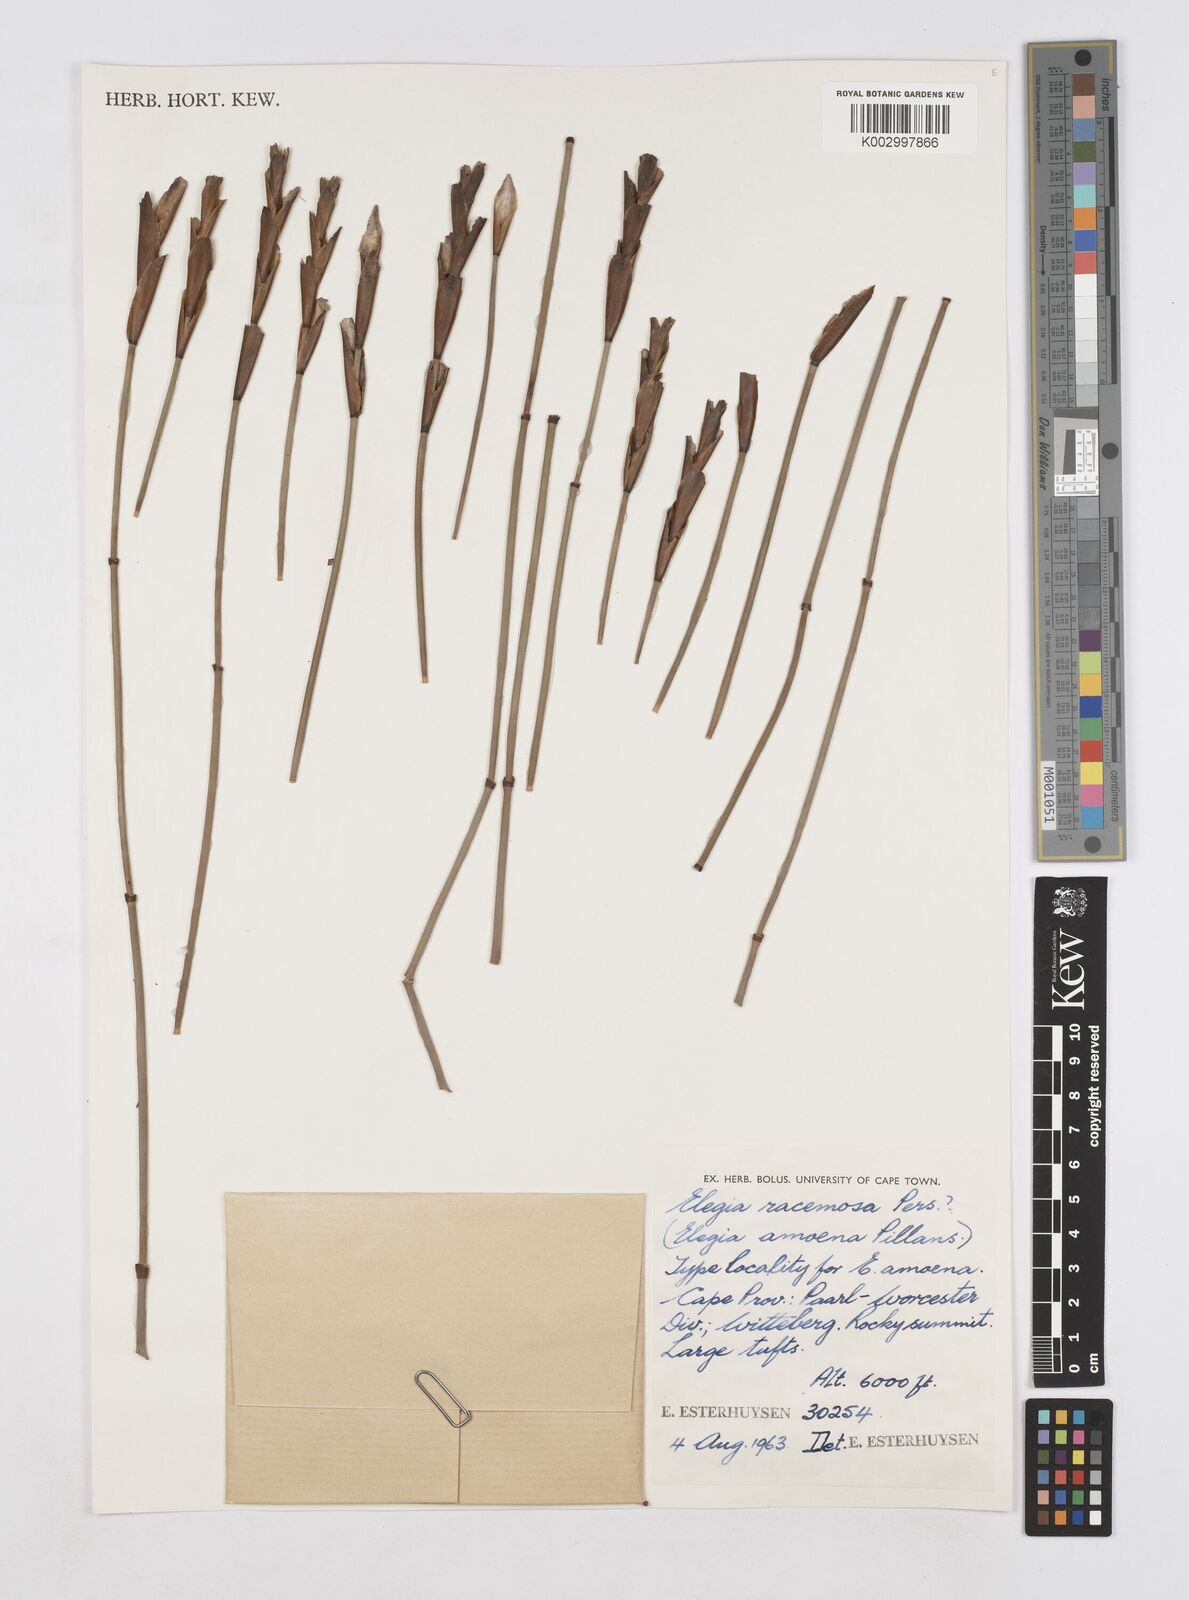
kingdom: Plantae
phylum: Tracheophyta
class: Liliopsida
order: Poales
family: Restionaceae
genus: Elegia
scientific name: Elegia racemosa
